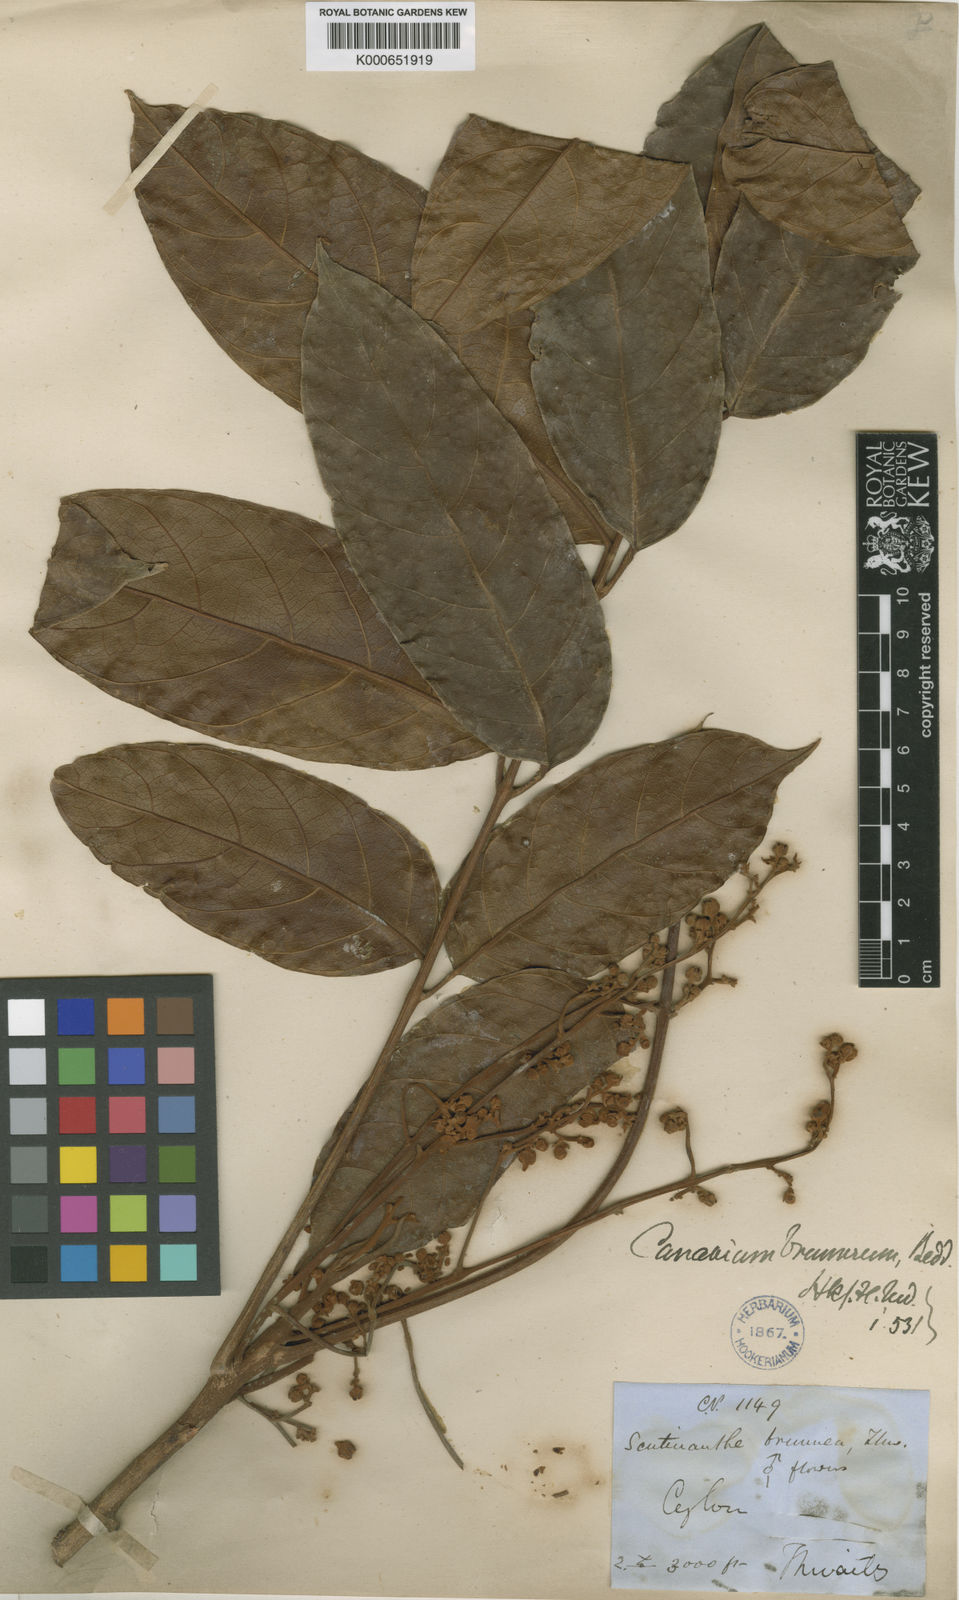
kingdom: Plantae
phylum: Tracheophyta
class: Magnoliopsida
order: Sapindales
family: Burseraceae
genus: Scutinanthe
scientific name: Scutinanthe brunnea
